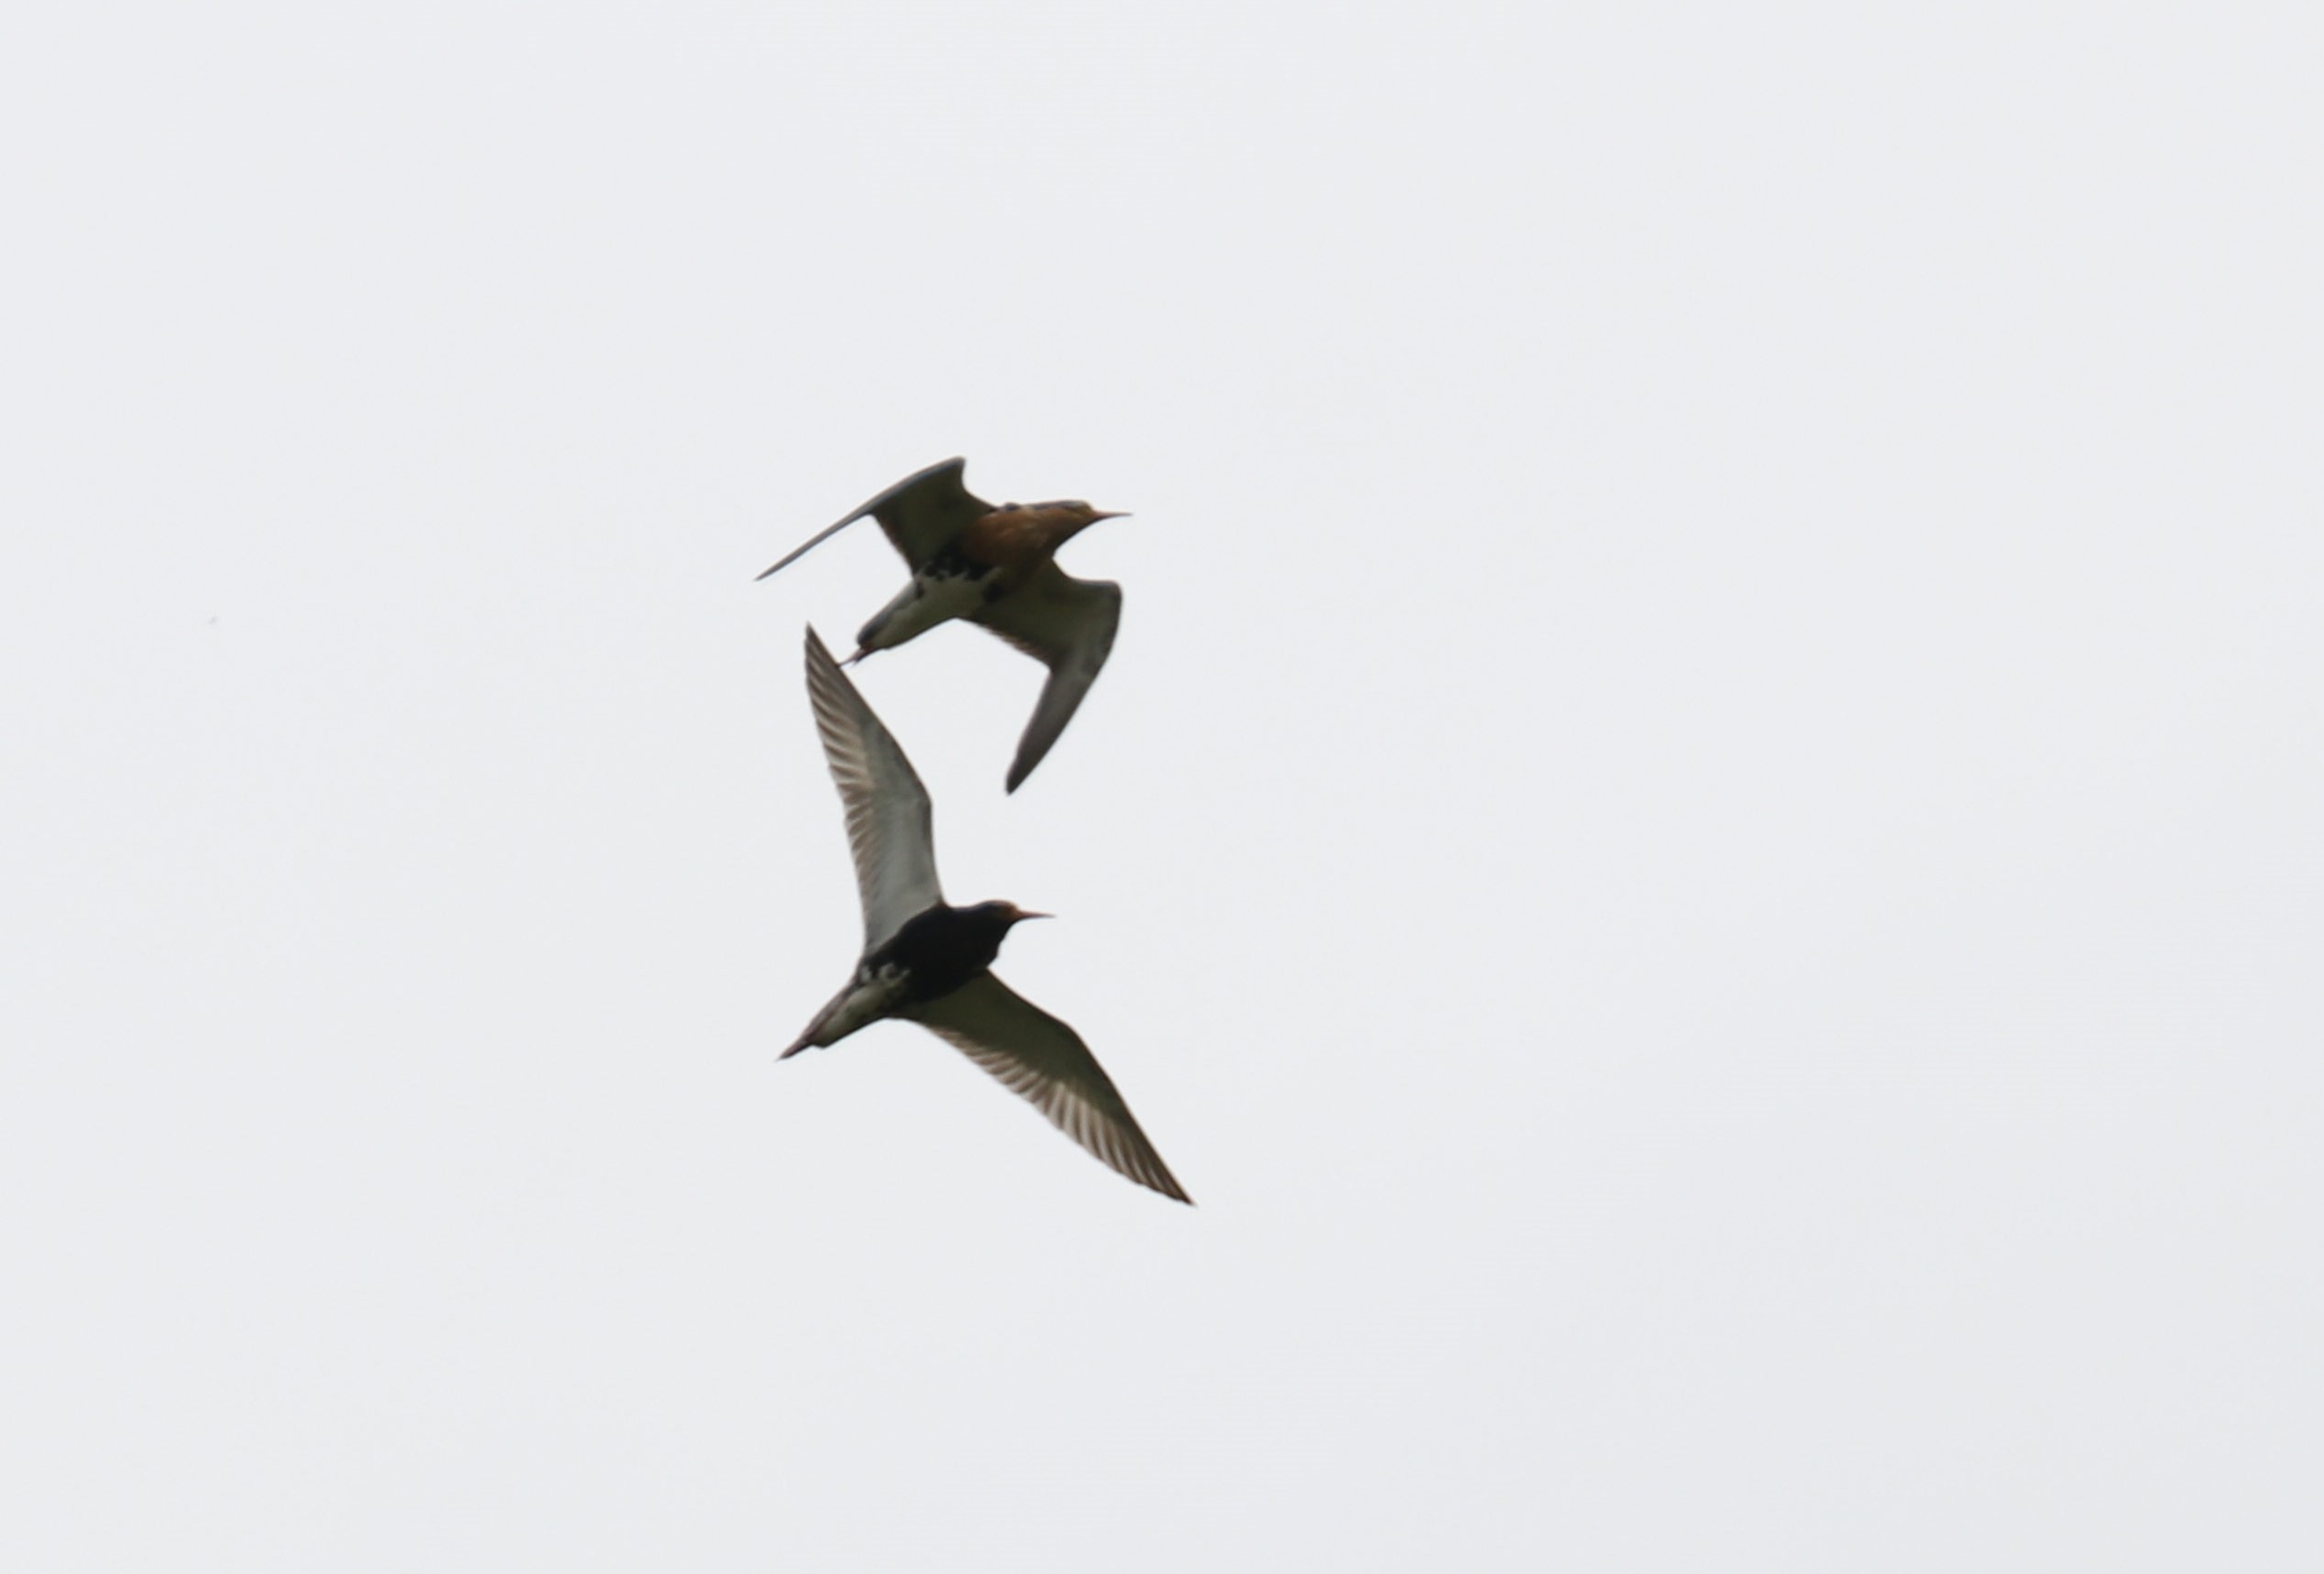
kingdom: Animalia
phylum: Chordata
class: Aves
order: Charadriiformes
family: Scolopacidae
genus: Calidris
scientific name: Calidris pugnax
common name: Brushane
